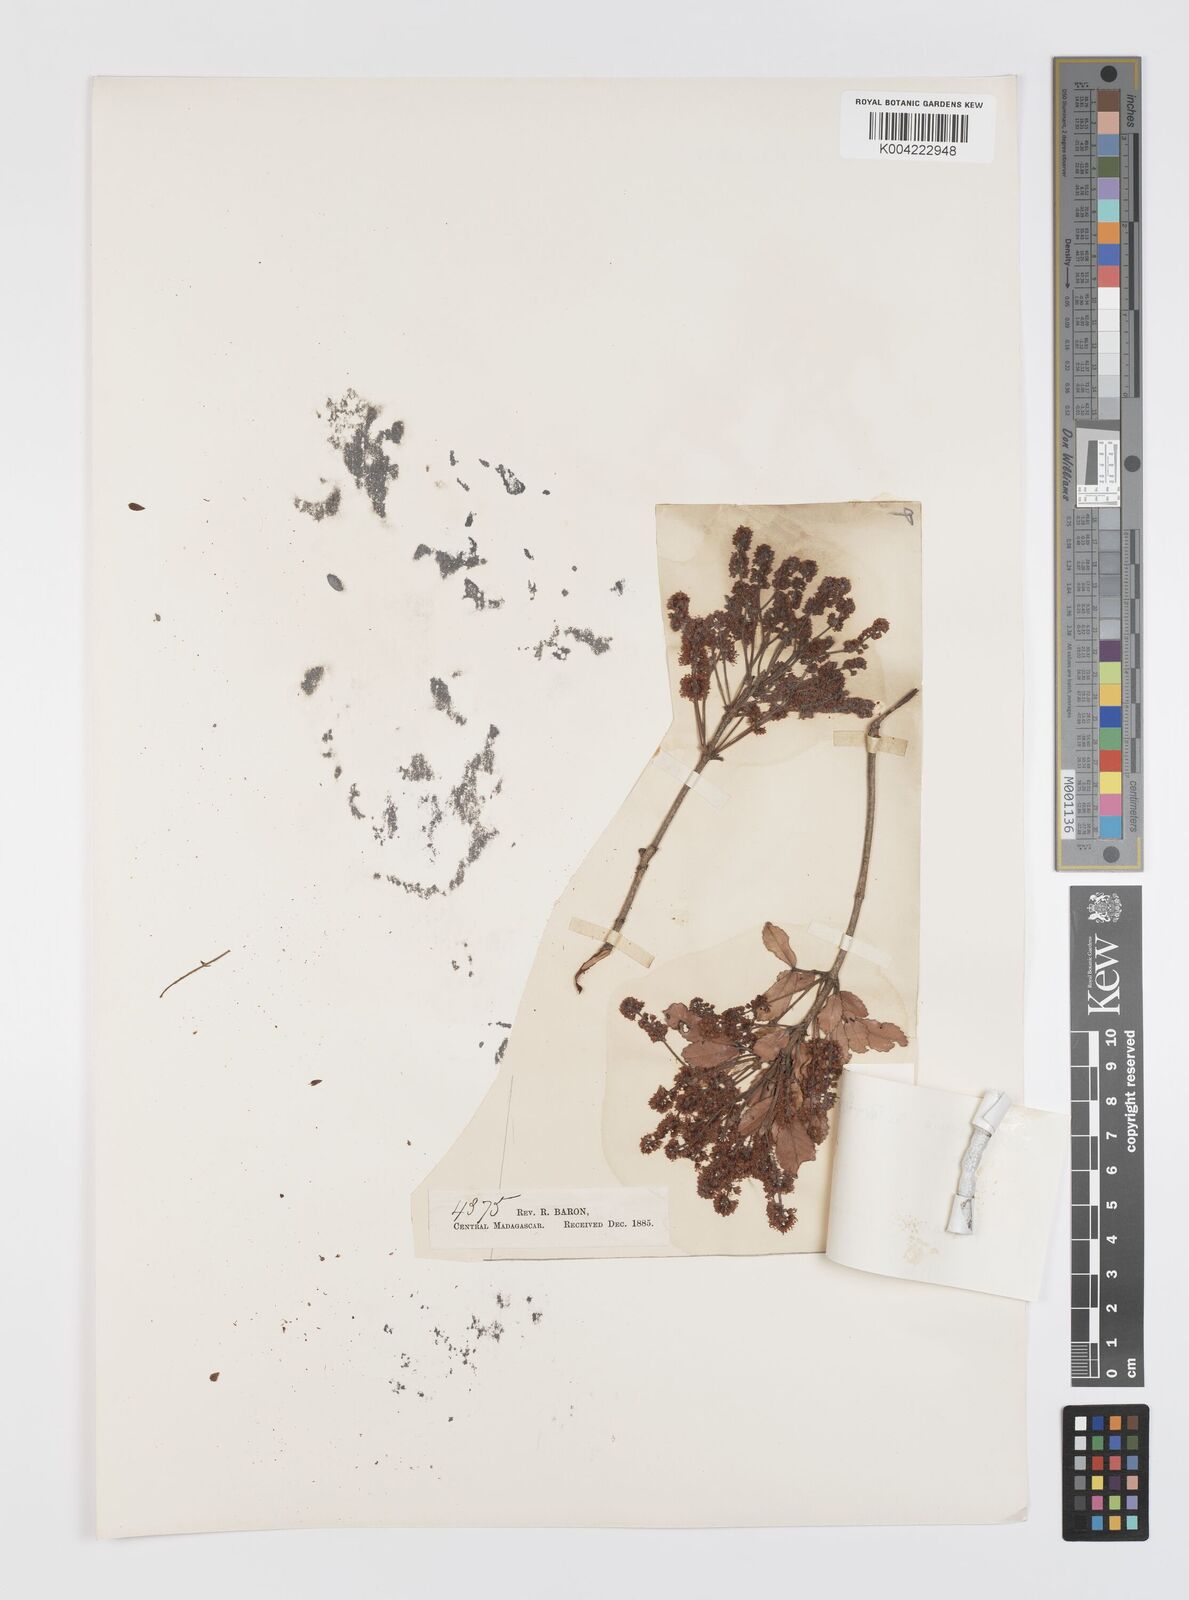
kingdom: Plantae
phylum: Tracheophyta
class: Magnoliopsida
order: Oxalidales
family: Cunoniaceae
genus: Pterophylla
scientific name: Pterophylla rutenbergii
